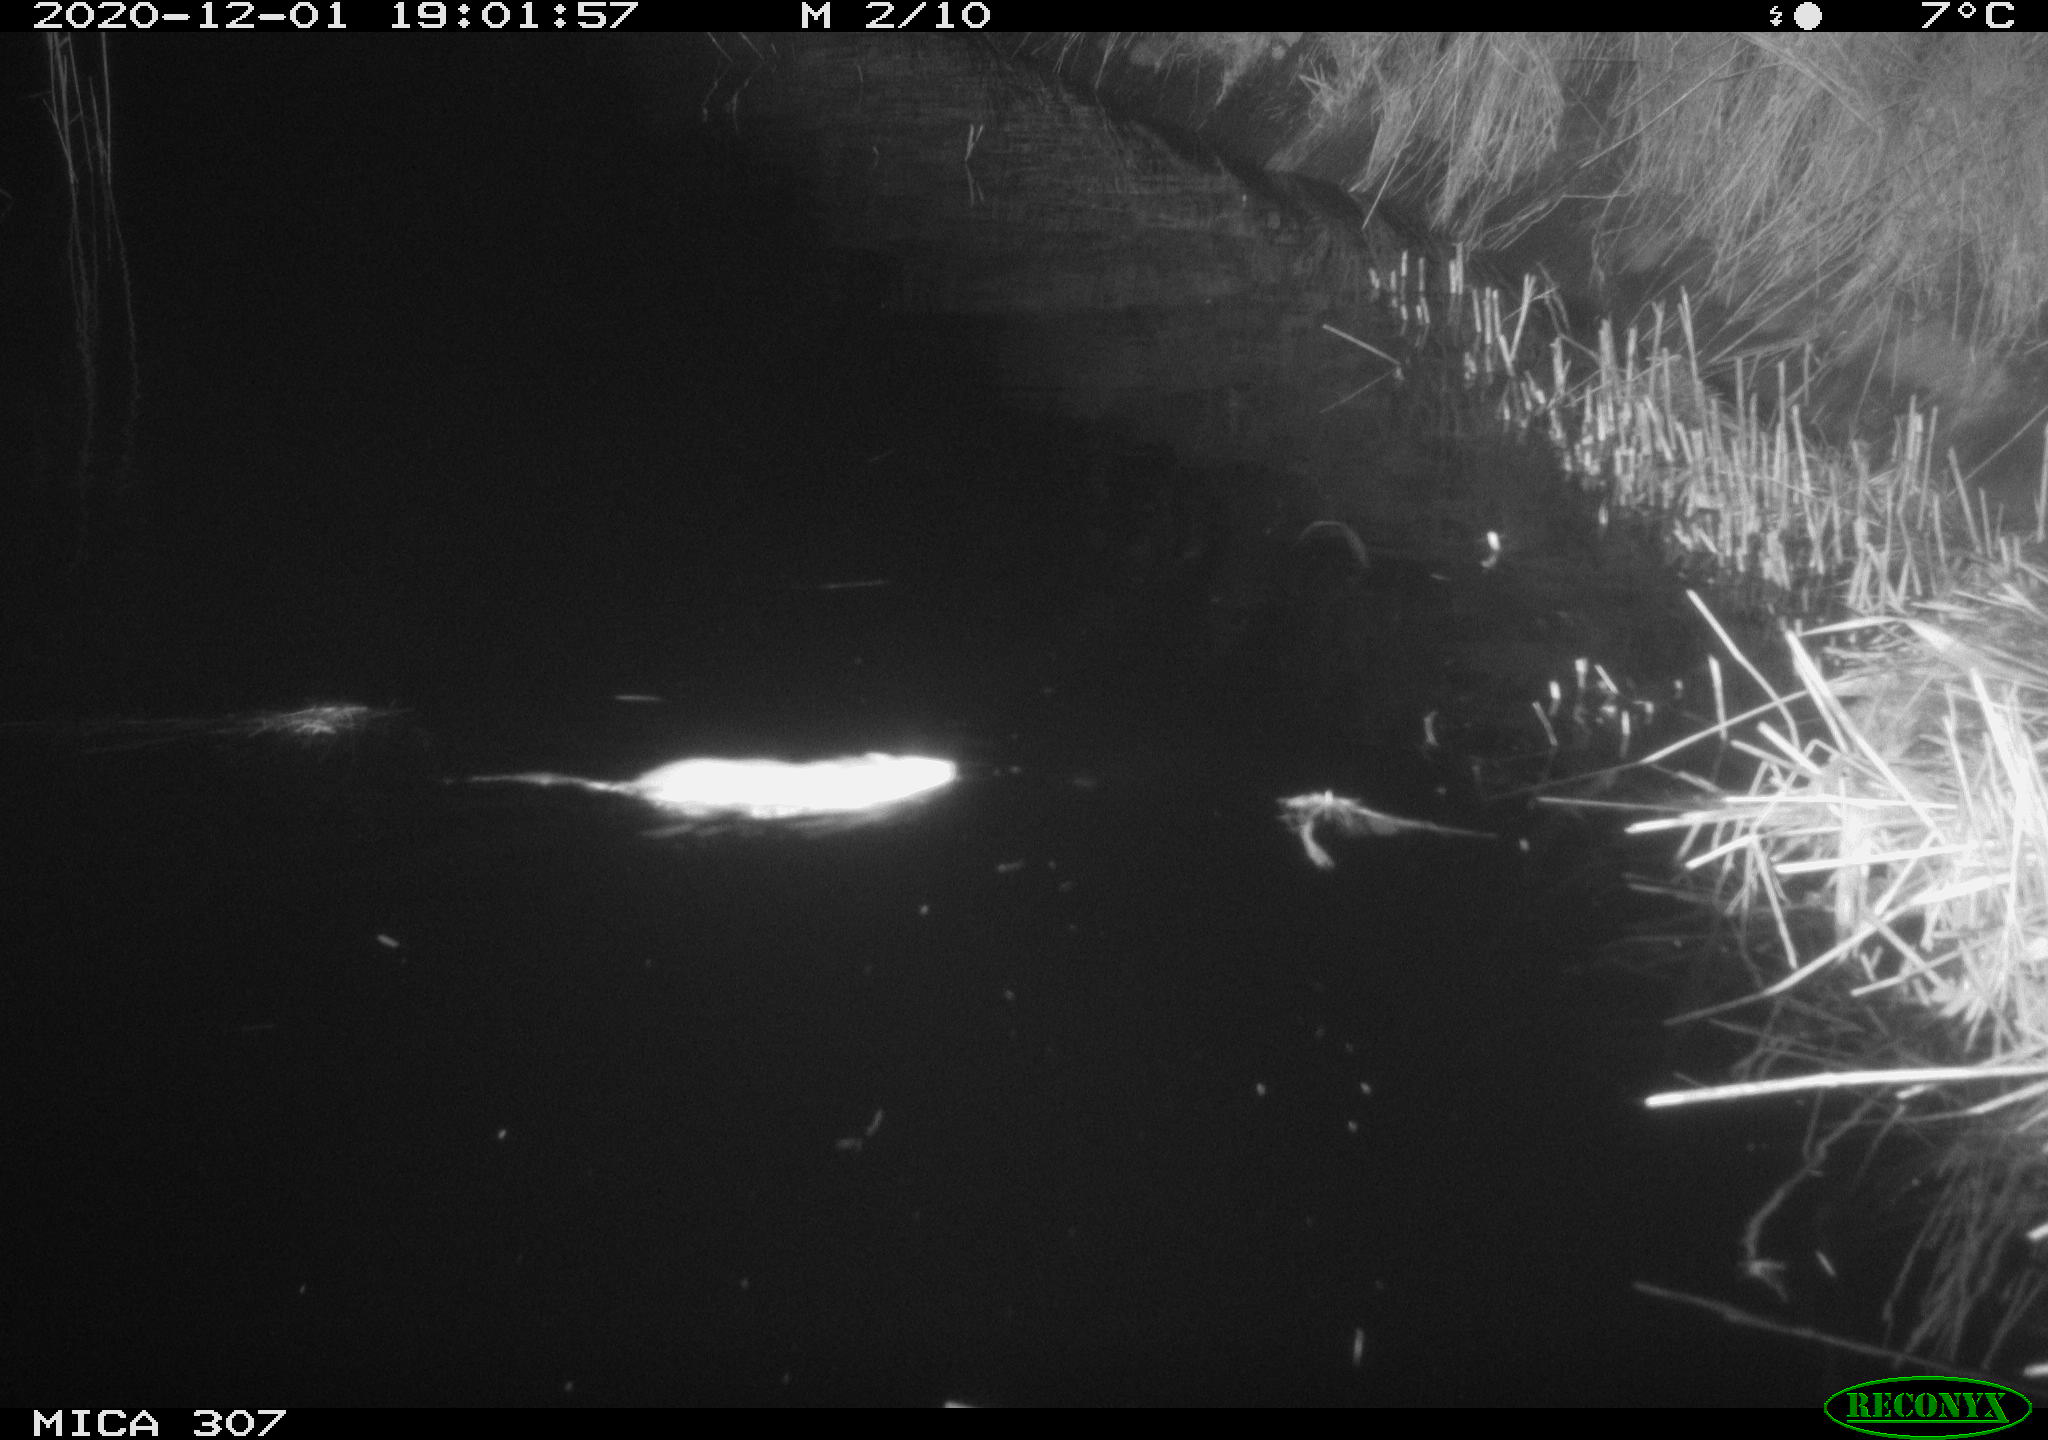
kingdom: Animalia
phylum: Chordata
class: Mammalia
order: Rodentia
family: Muridae
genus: Rattus
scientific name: Rattus norvegicus
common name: Brown rat
